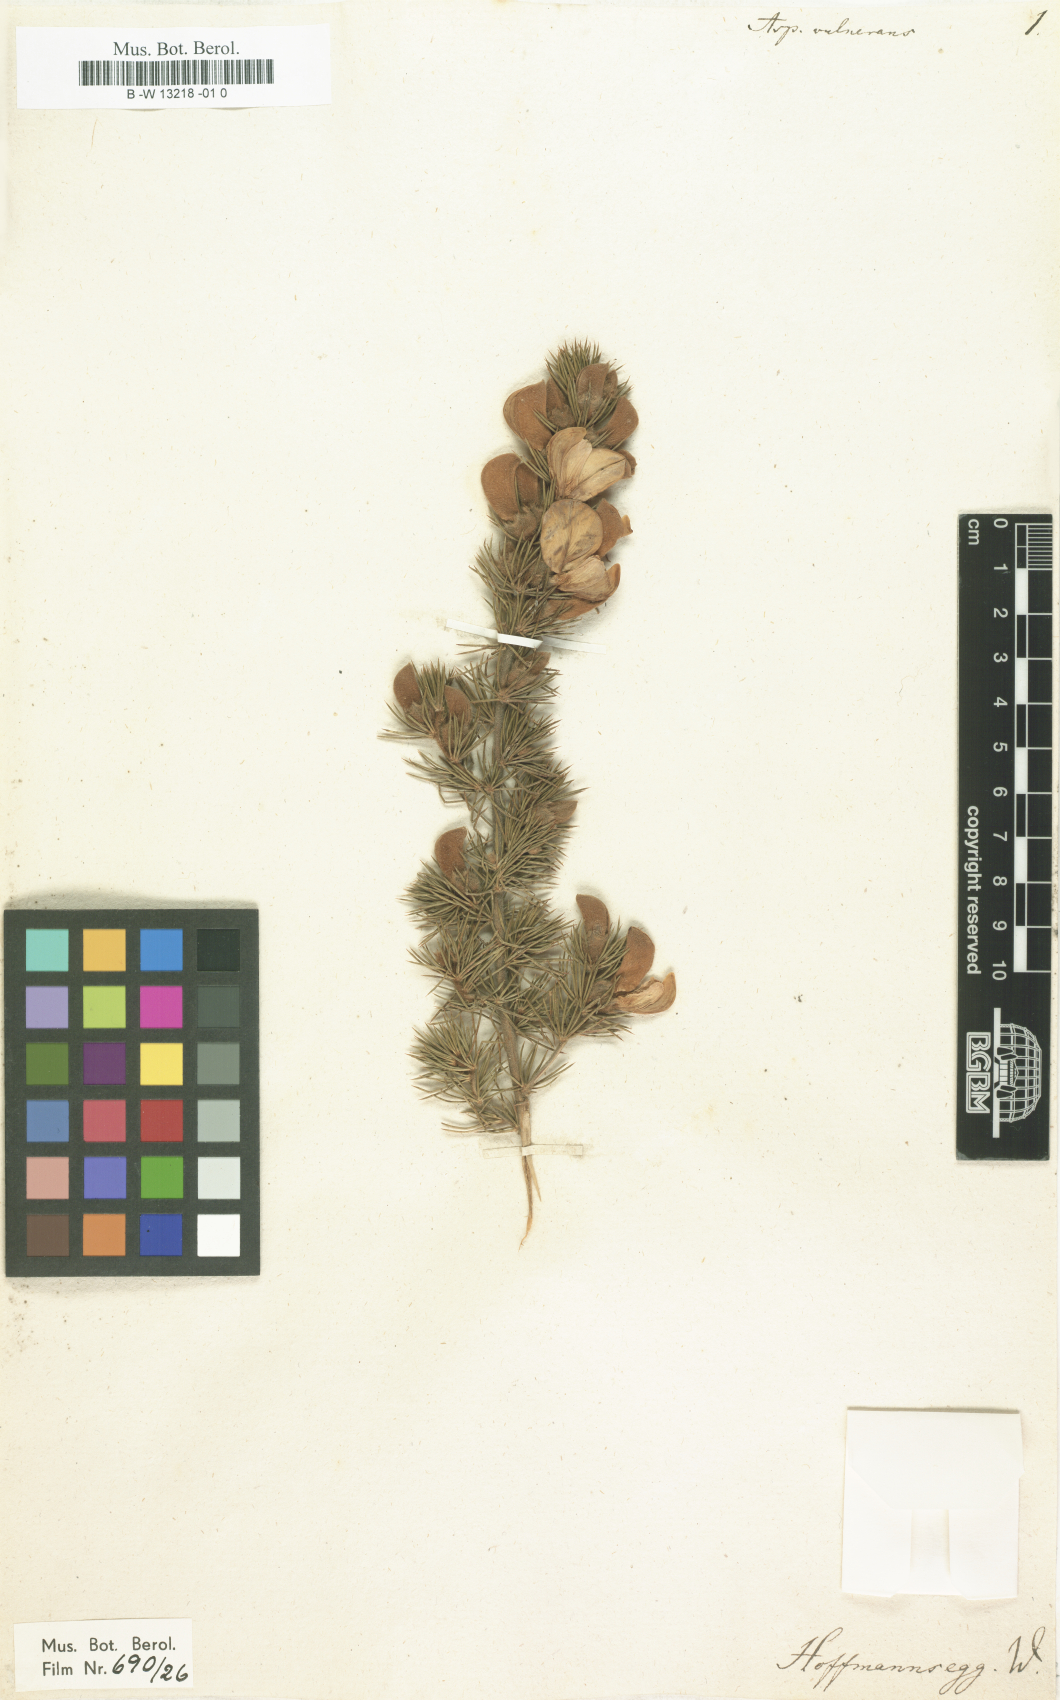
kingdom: Plantae
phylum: Tracheophyta
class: Magnoliopsida
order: Fabales
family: Fabaceae
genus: Aspalathus
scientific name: Aspalathus vulnerans
